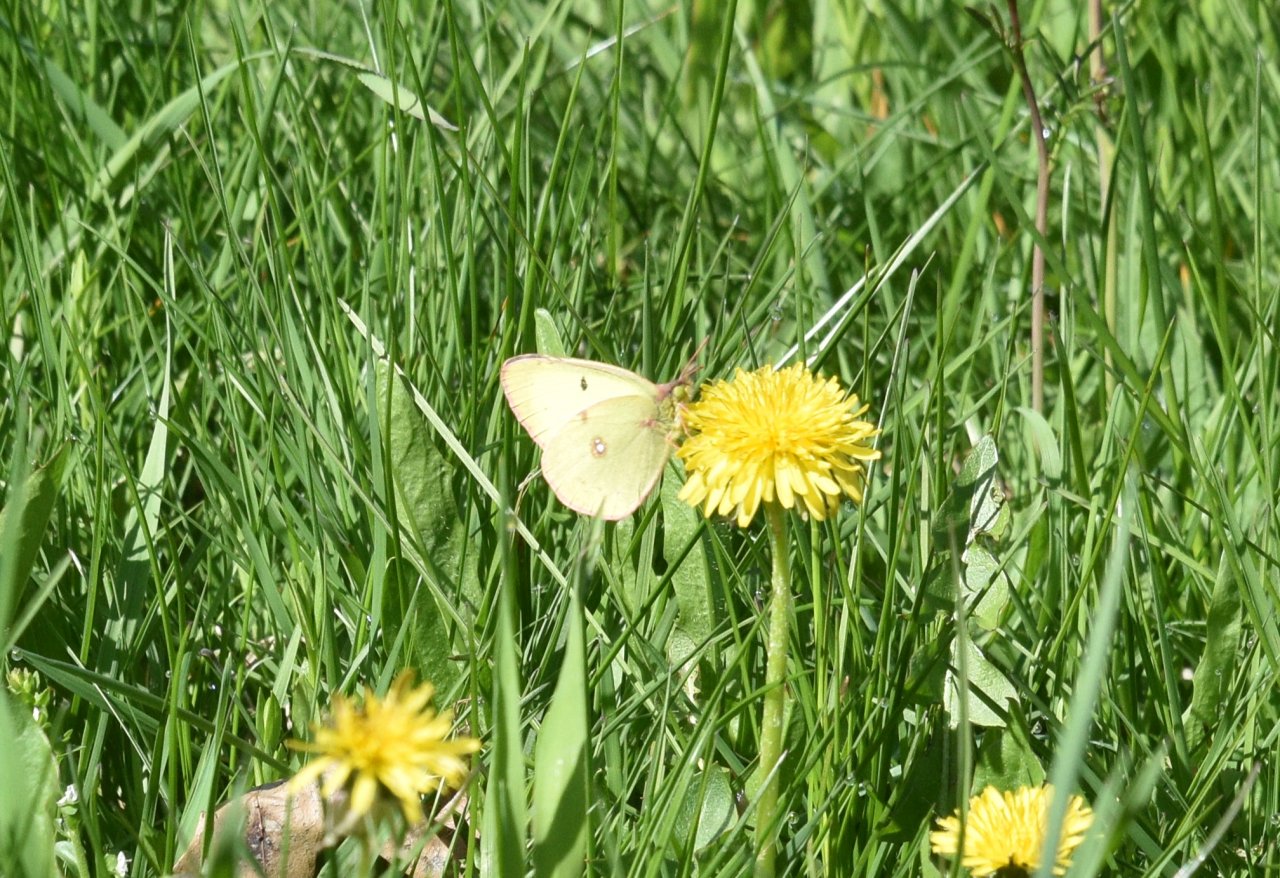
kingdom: Animalia
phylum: Arthropoda
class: Insecta
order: Lepidoptera
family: Pieridae
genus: Colias
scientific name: Colias philodice
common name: Clouded Sulphur
